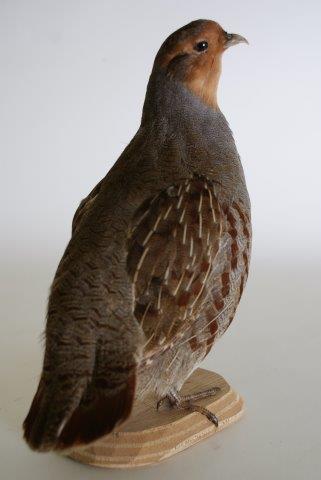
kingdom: Animalia
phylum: Chordata
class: Aves
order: Galliformes
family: Phasianidae
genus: Perdix
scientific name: Perdix perdix
